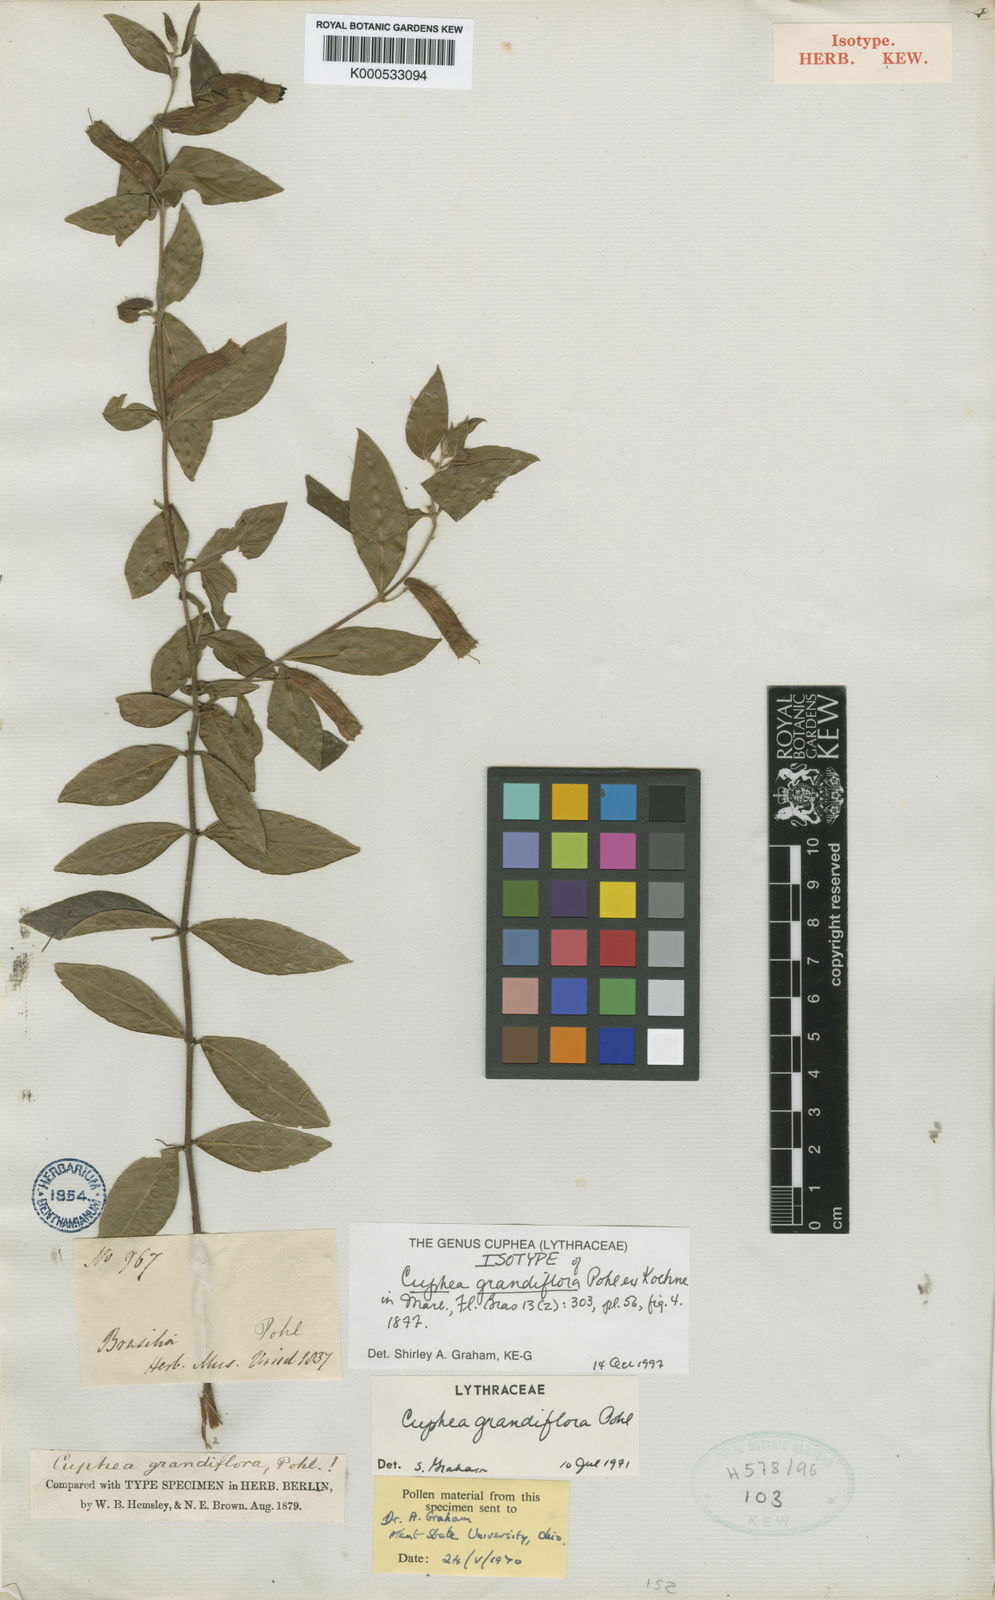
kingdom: Plantae
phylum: Tracheophyta
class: Magnoliopsida
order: Myrtales
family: Lythraceae
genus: Cuphea
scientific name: Cuphea grandiflora
